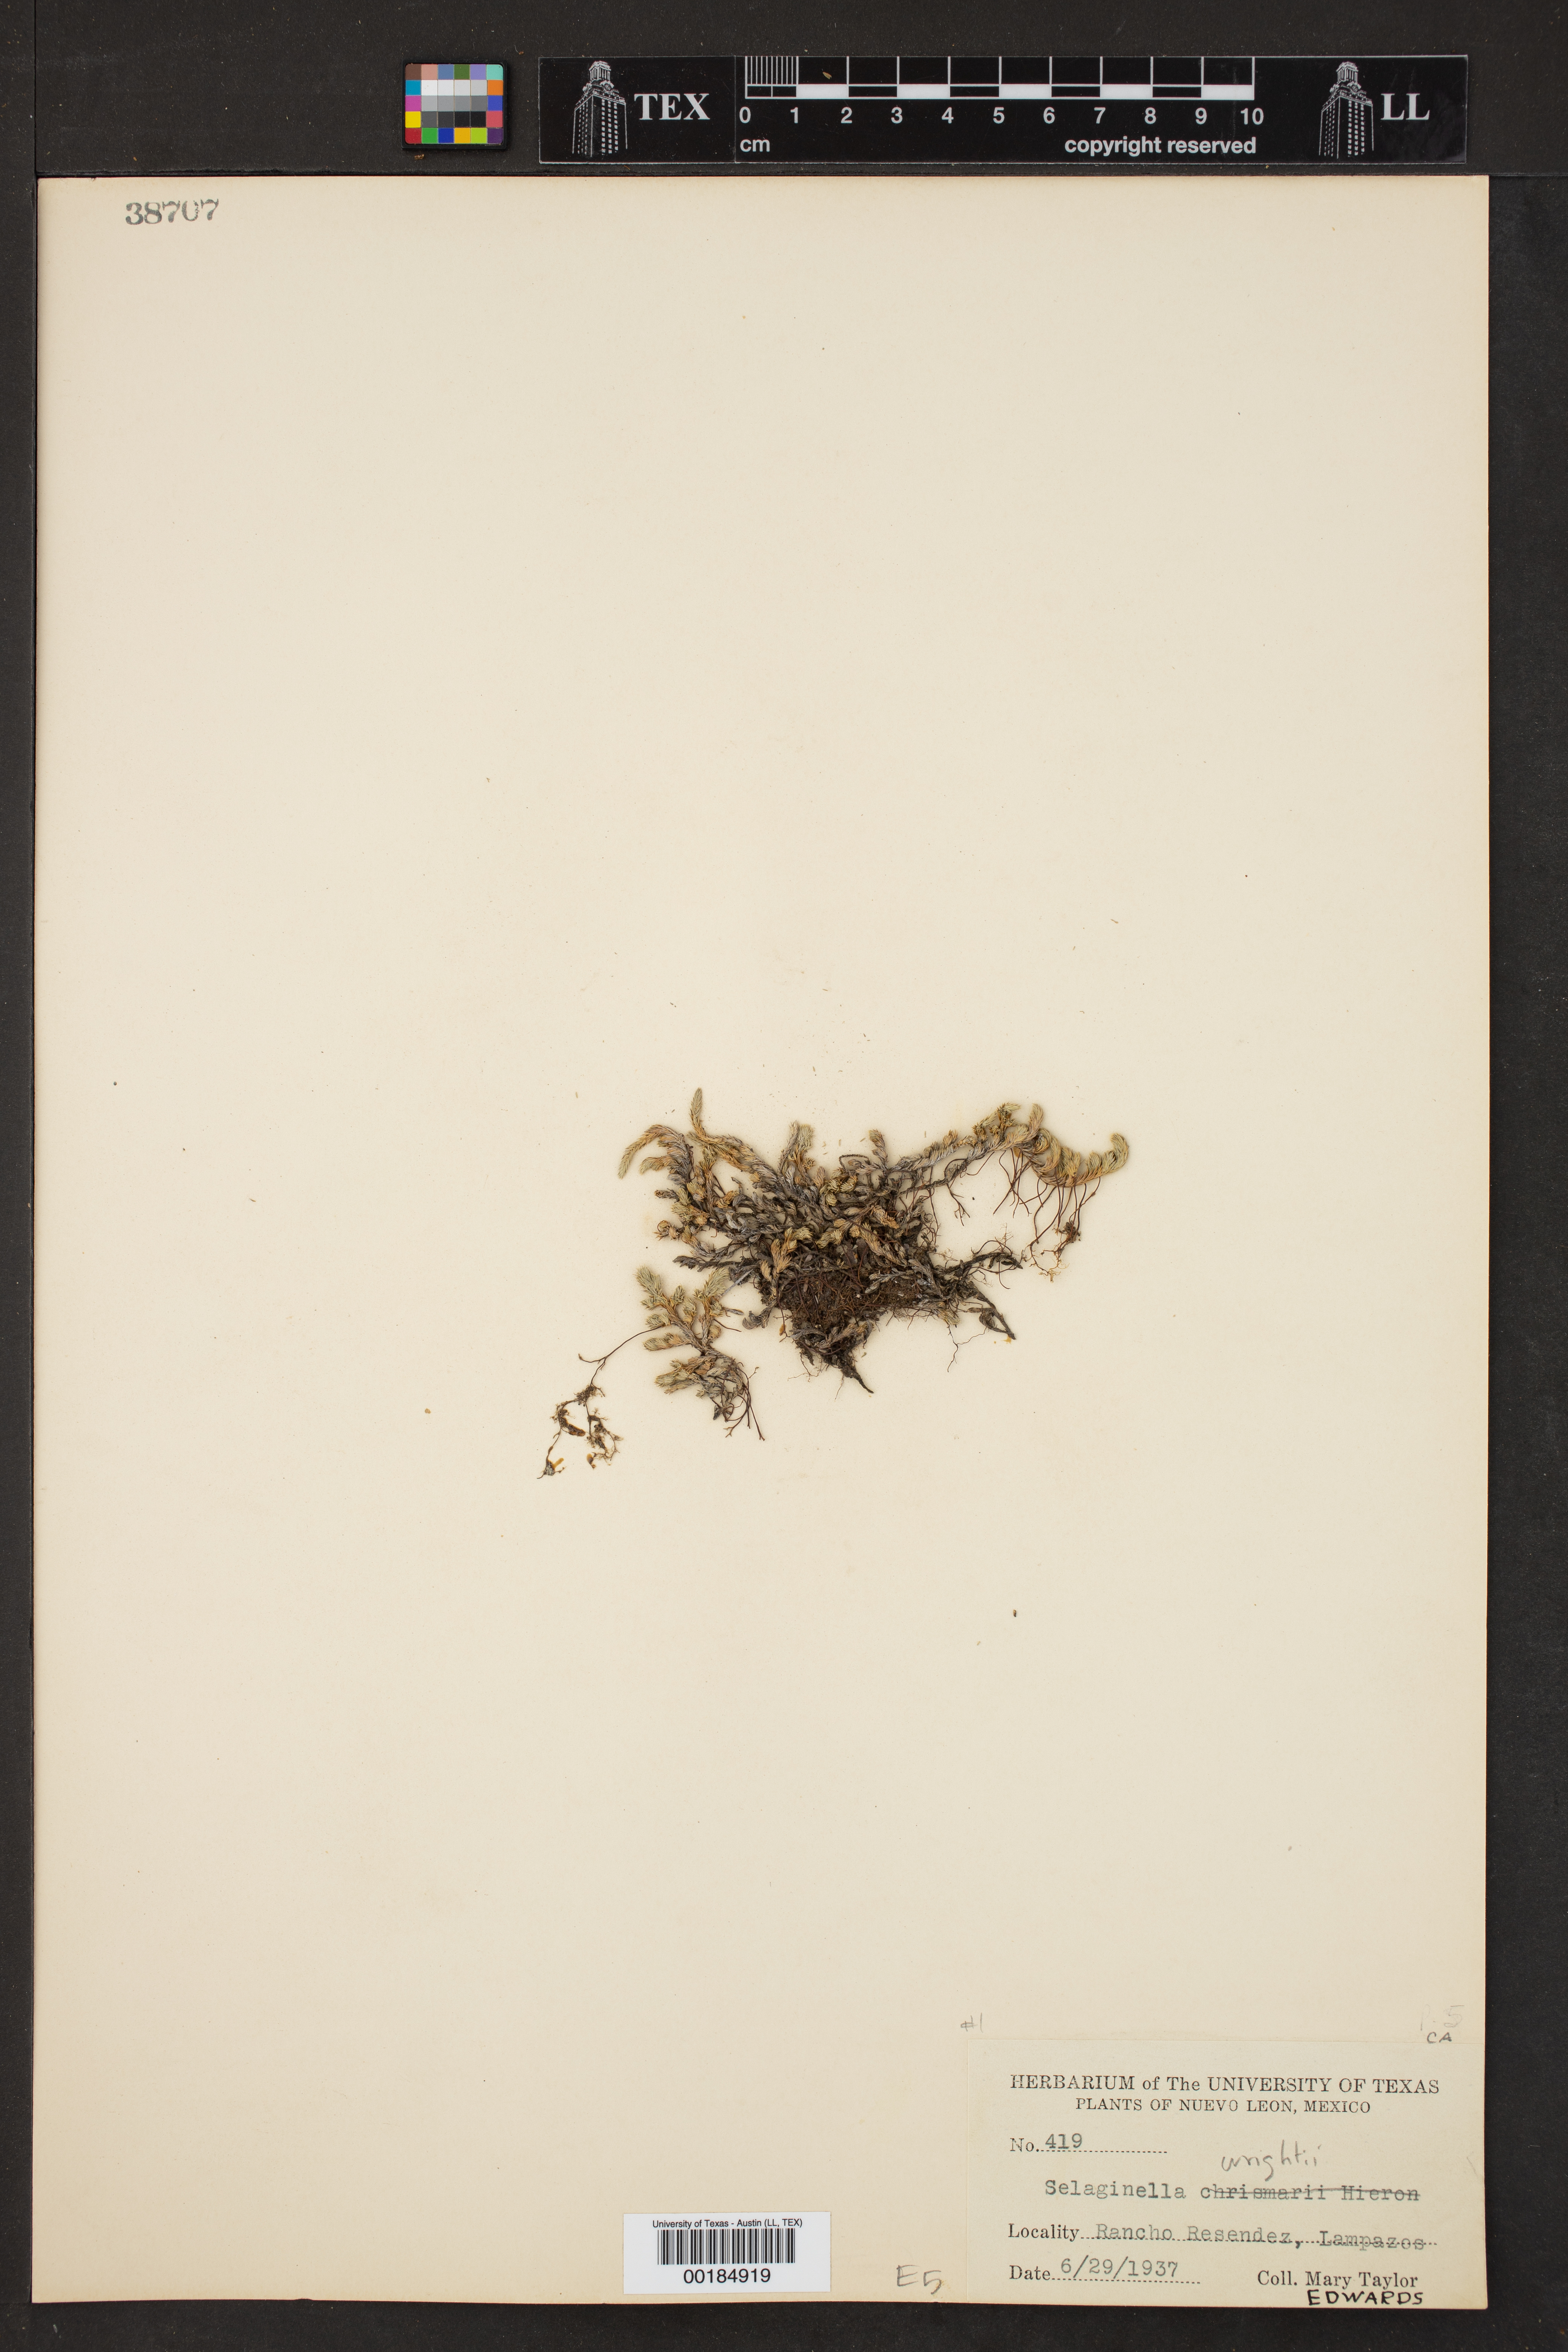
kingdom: Plantae
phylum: Tracheophyta
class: Lycopodiopsida
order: Selaginellales
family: Selaginellaceae
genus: Selaginella
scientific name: Selaginella wrightii
